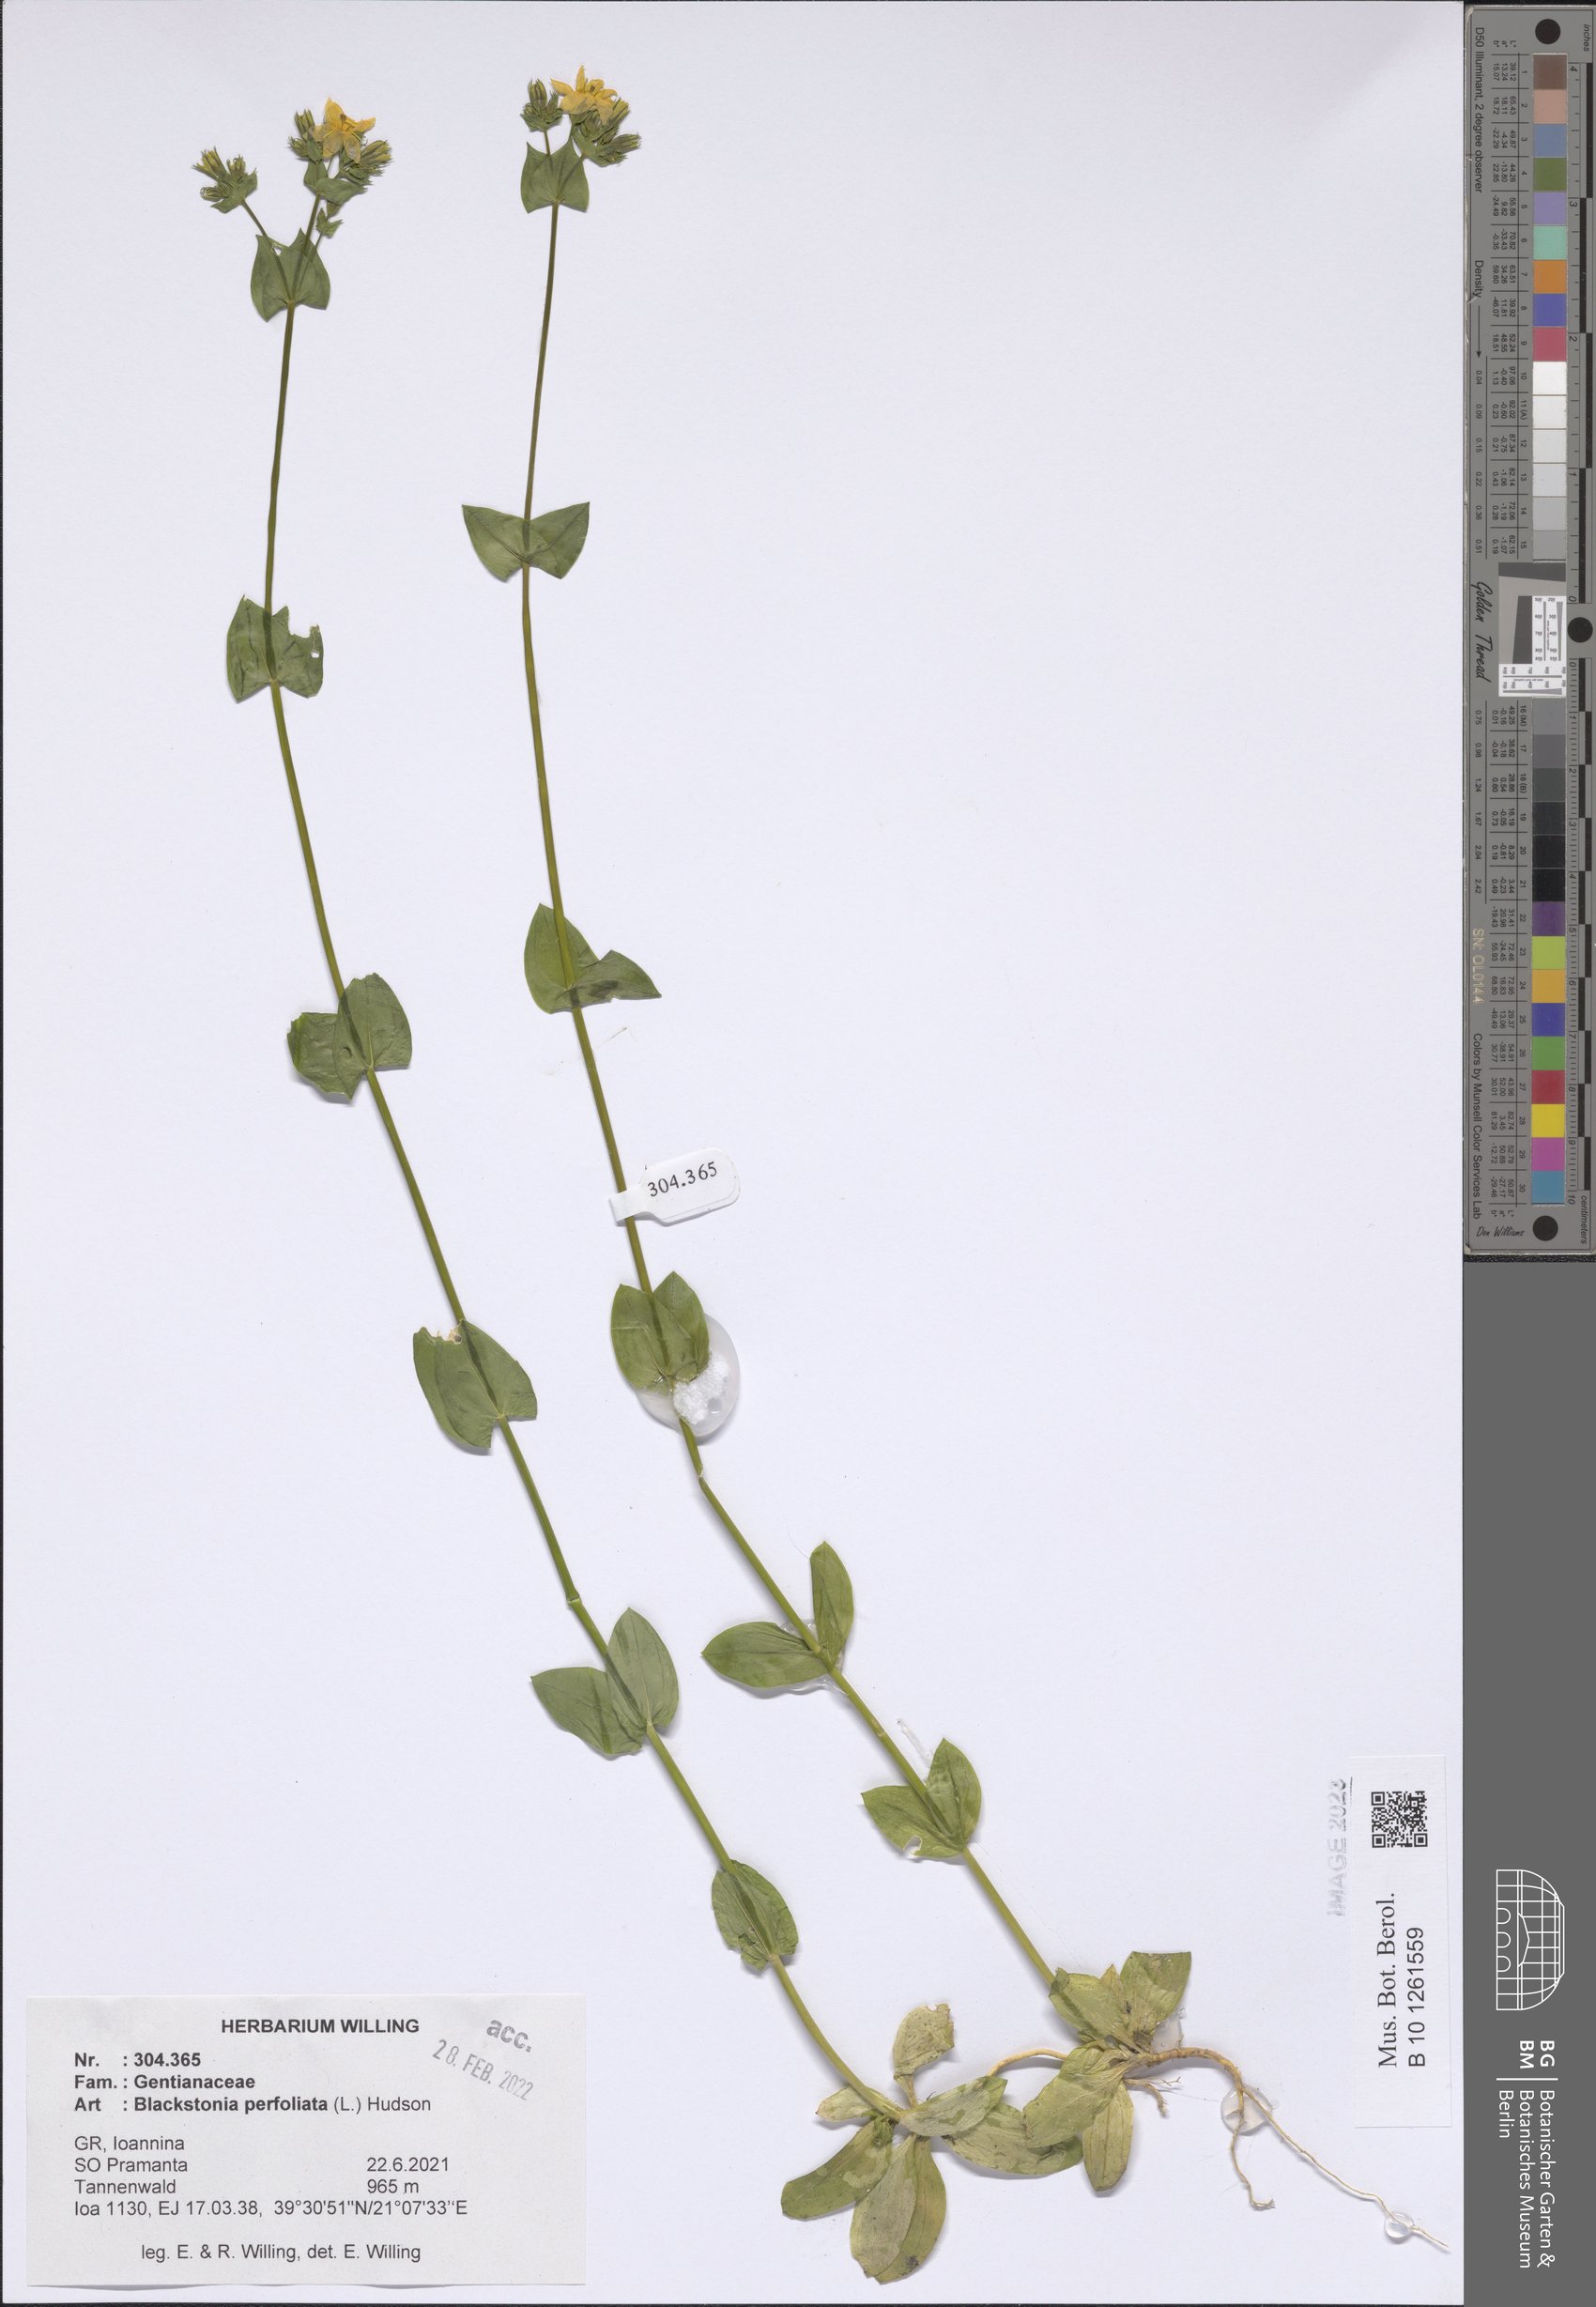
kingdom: Plantae
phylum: Tracheophyta
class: Magnoliopsida
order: Gentianales
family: Gentianaceae
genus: Blackstonia
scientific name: Blackstonia perfoliata
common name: Yellow-wort
